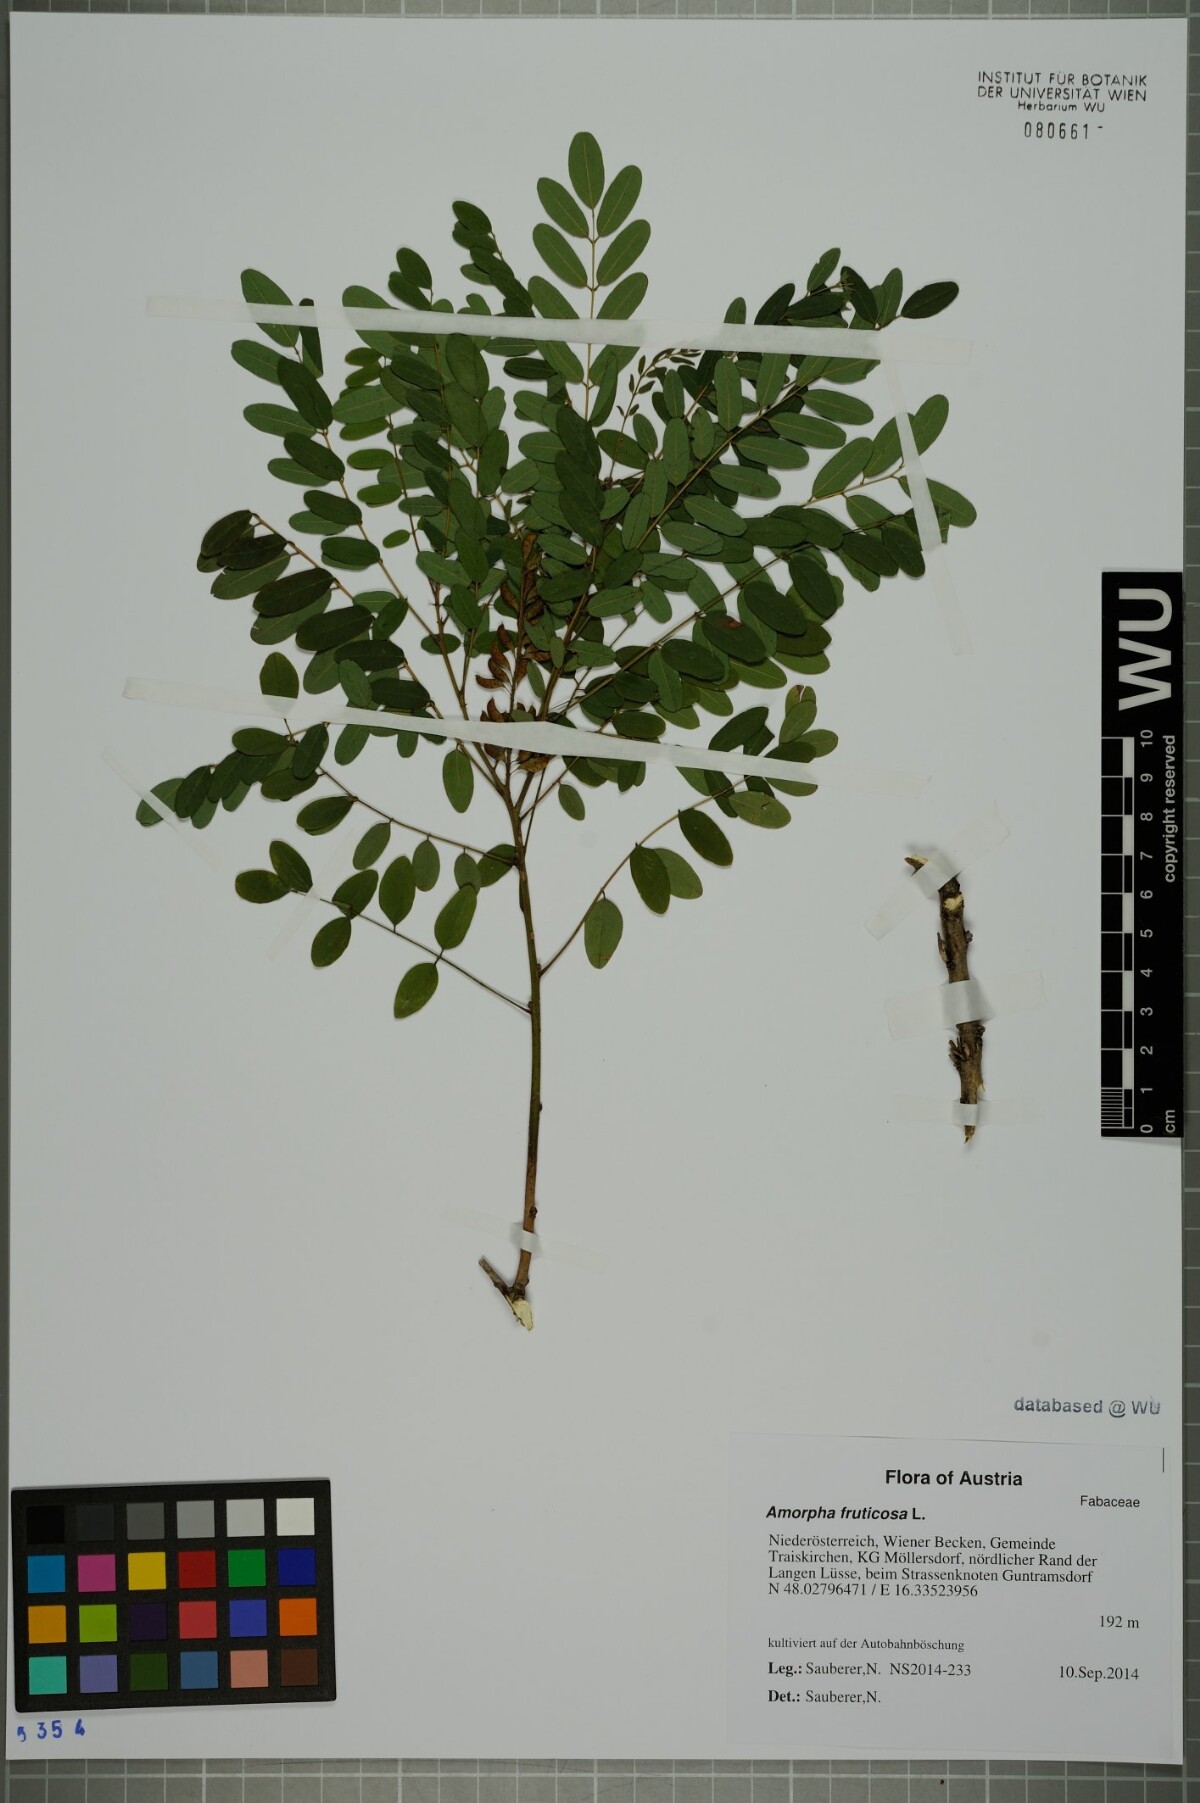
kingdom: Plantae
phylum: Tracheophyta
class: Magnoliopsida
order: Fabales
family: Fabaceae
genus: Amorpha
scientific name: Amorpha fruticosa
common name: False indigo
